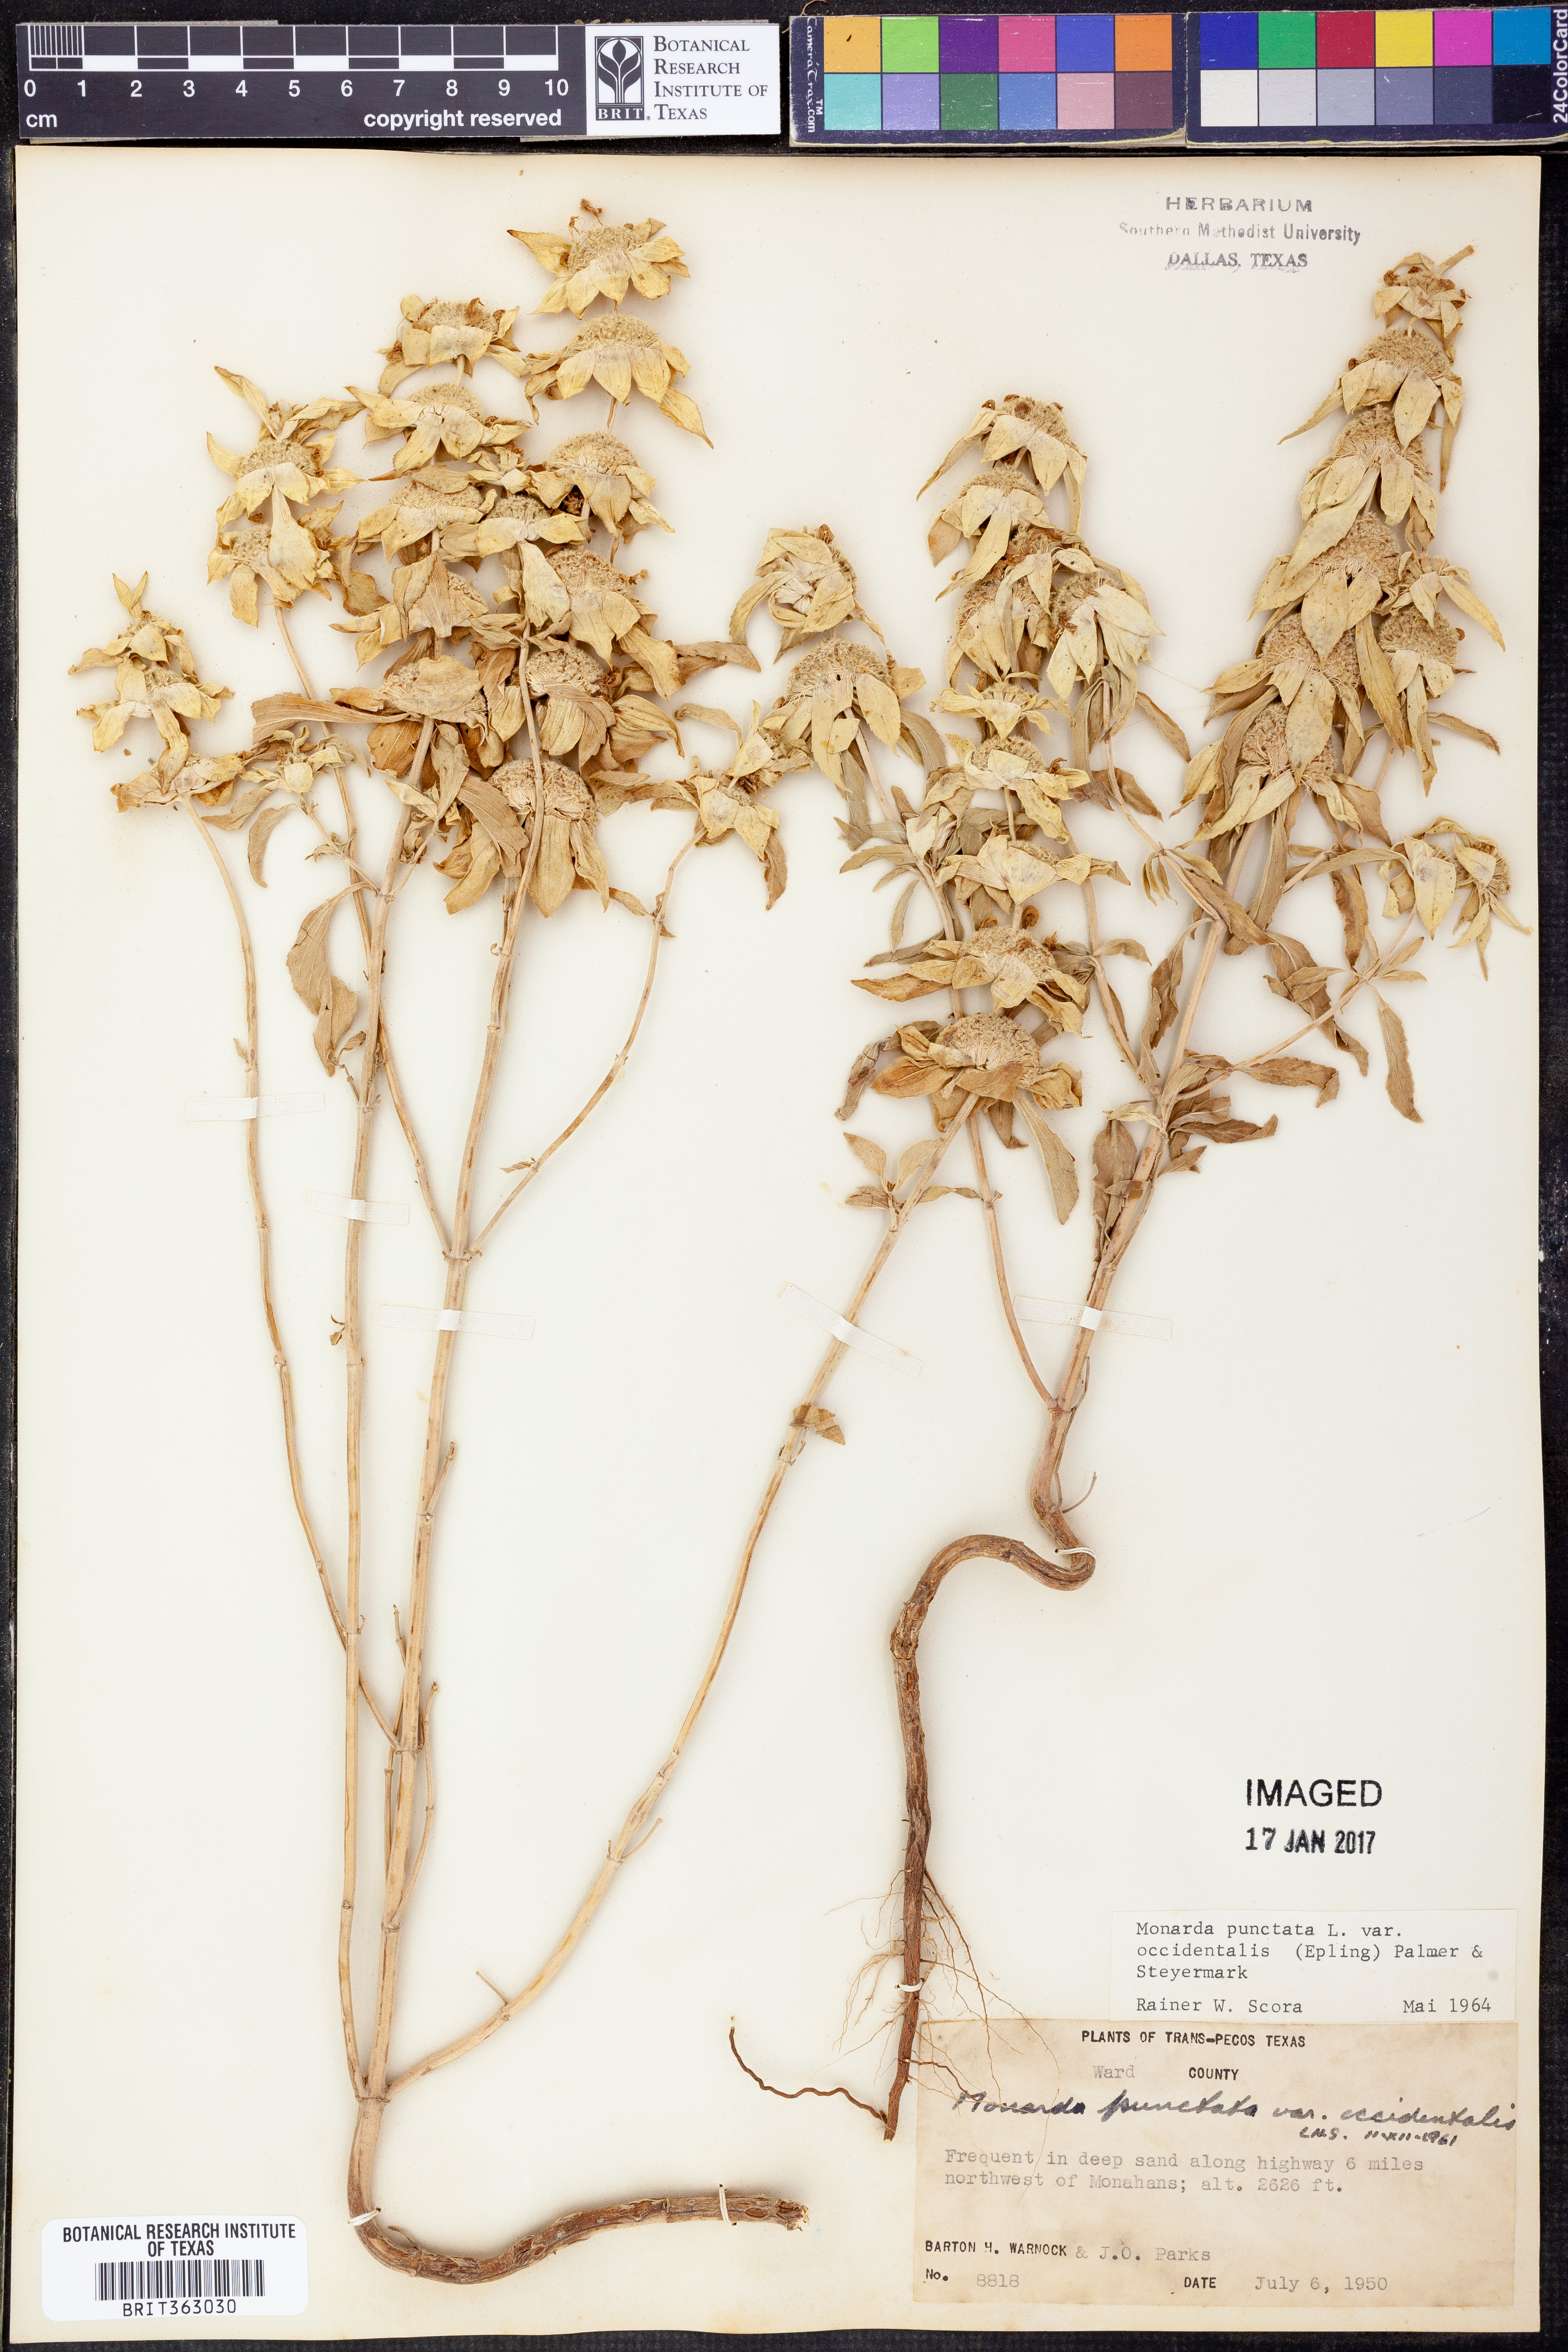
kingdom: Plantae
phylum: Tracheophyta
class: Magnoliopsida
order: Lamiales
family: Lamiaceae
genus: Monarda
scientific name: Monarda punctata
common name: Dotted monarda
